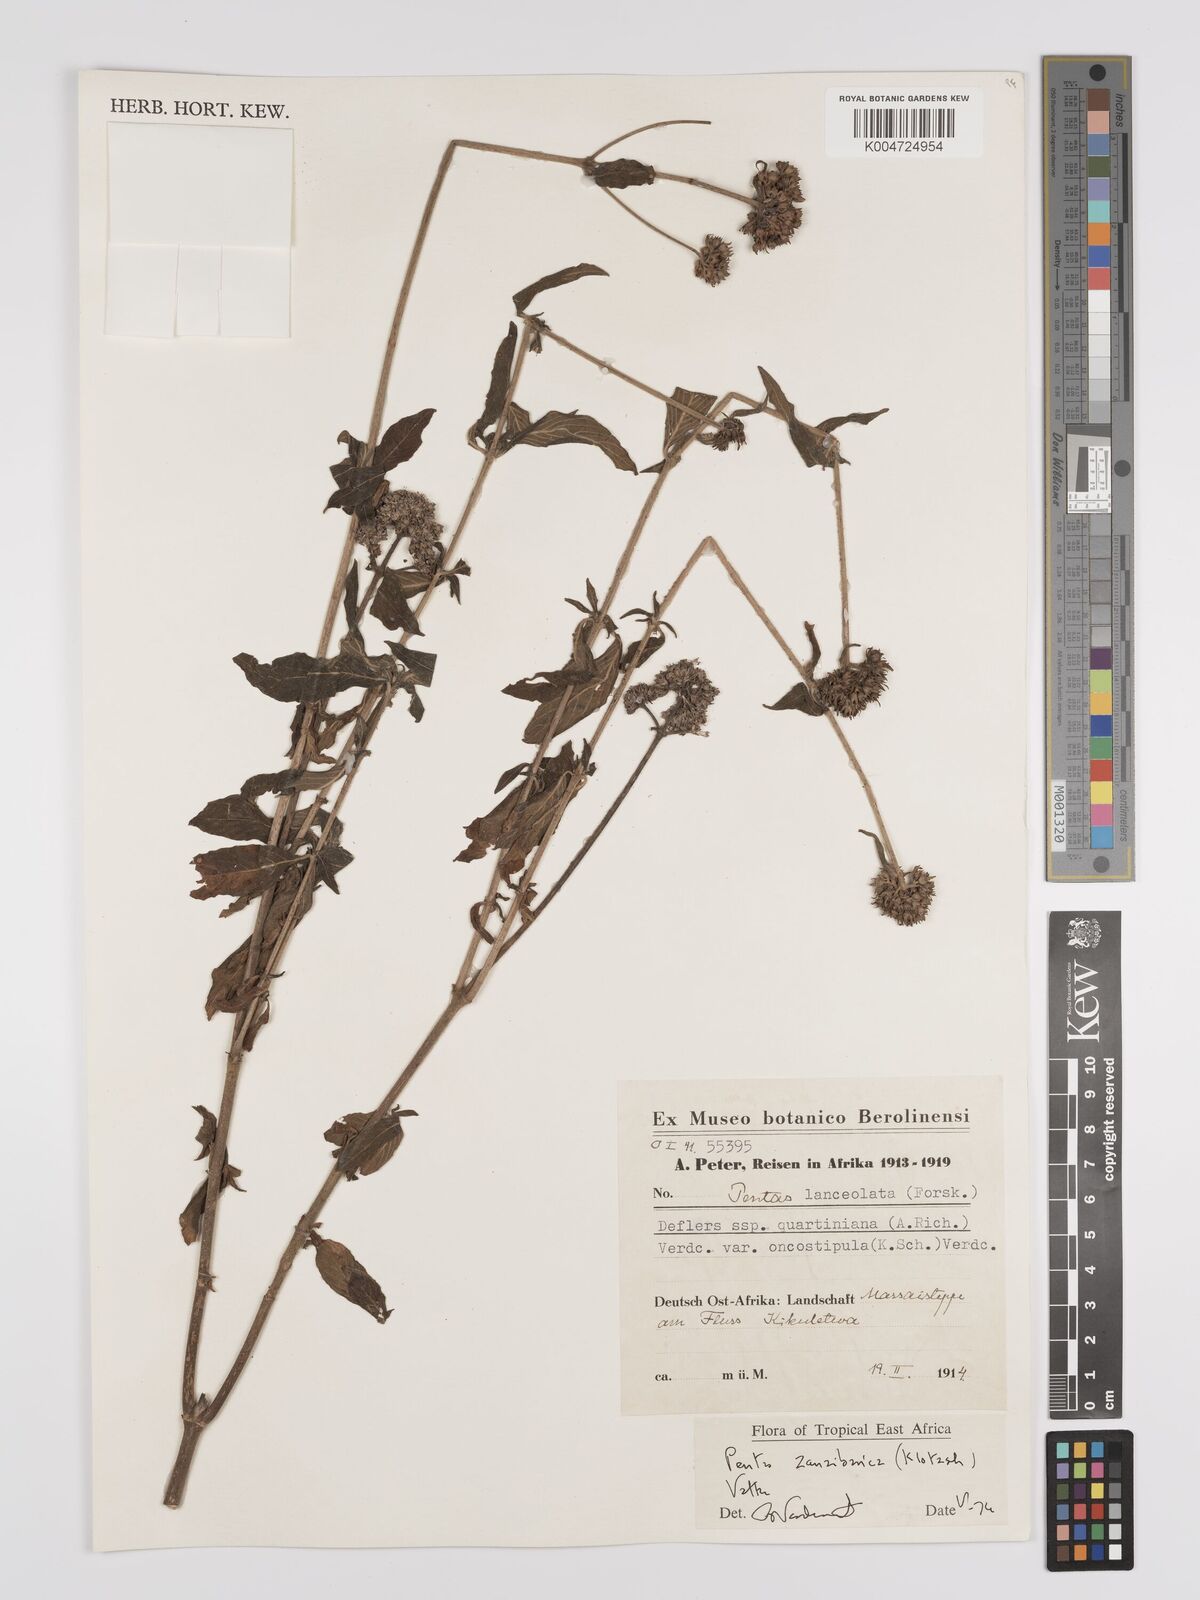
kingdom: Plantae
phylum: Tracheophyta
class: Magnoliopsida
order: Gentianales
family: Rubiaceae
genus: Pentas
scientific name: Pentas zanzibarica
